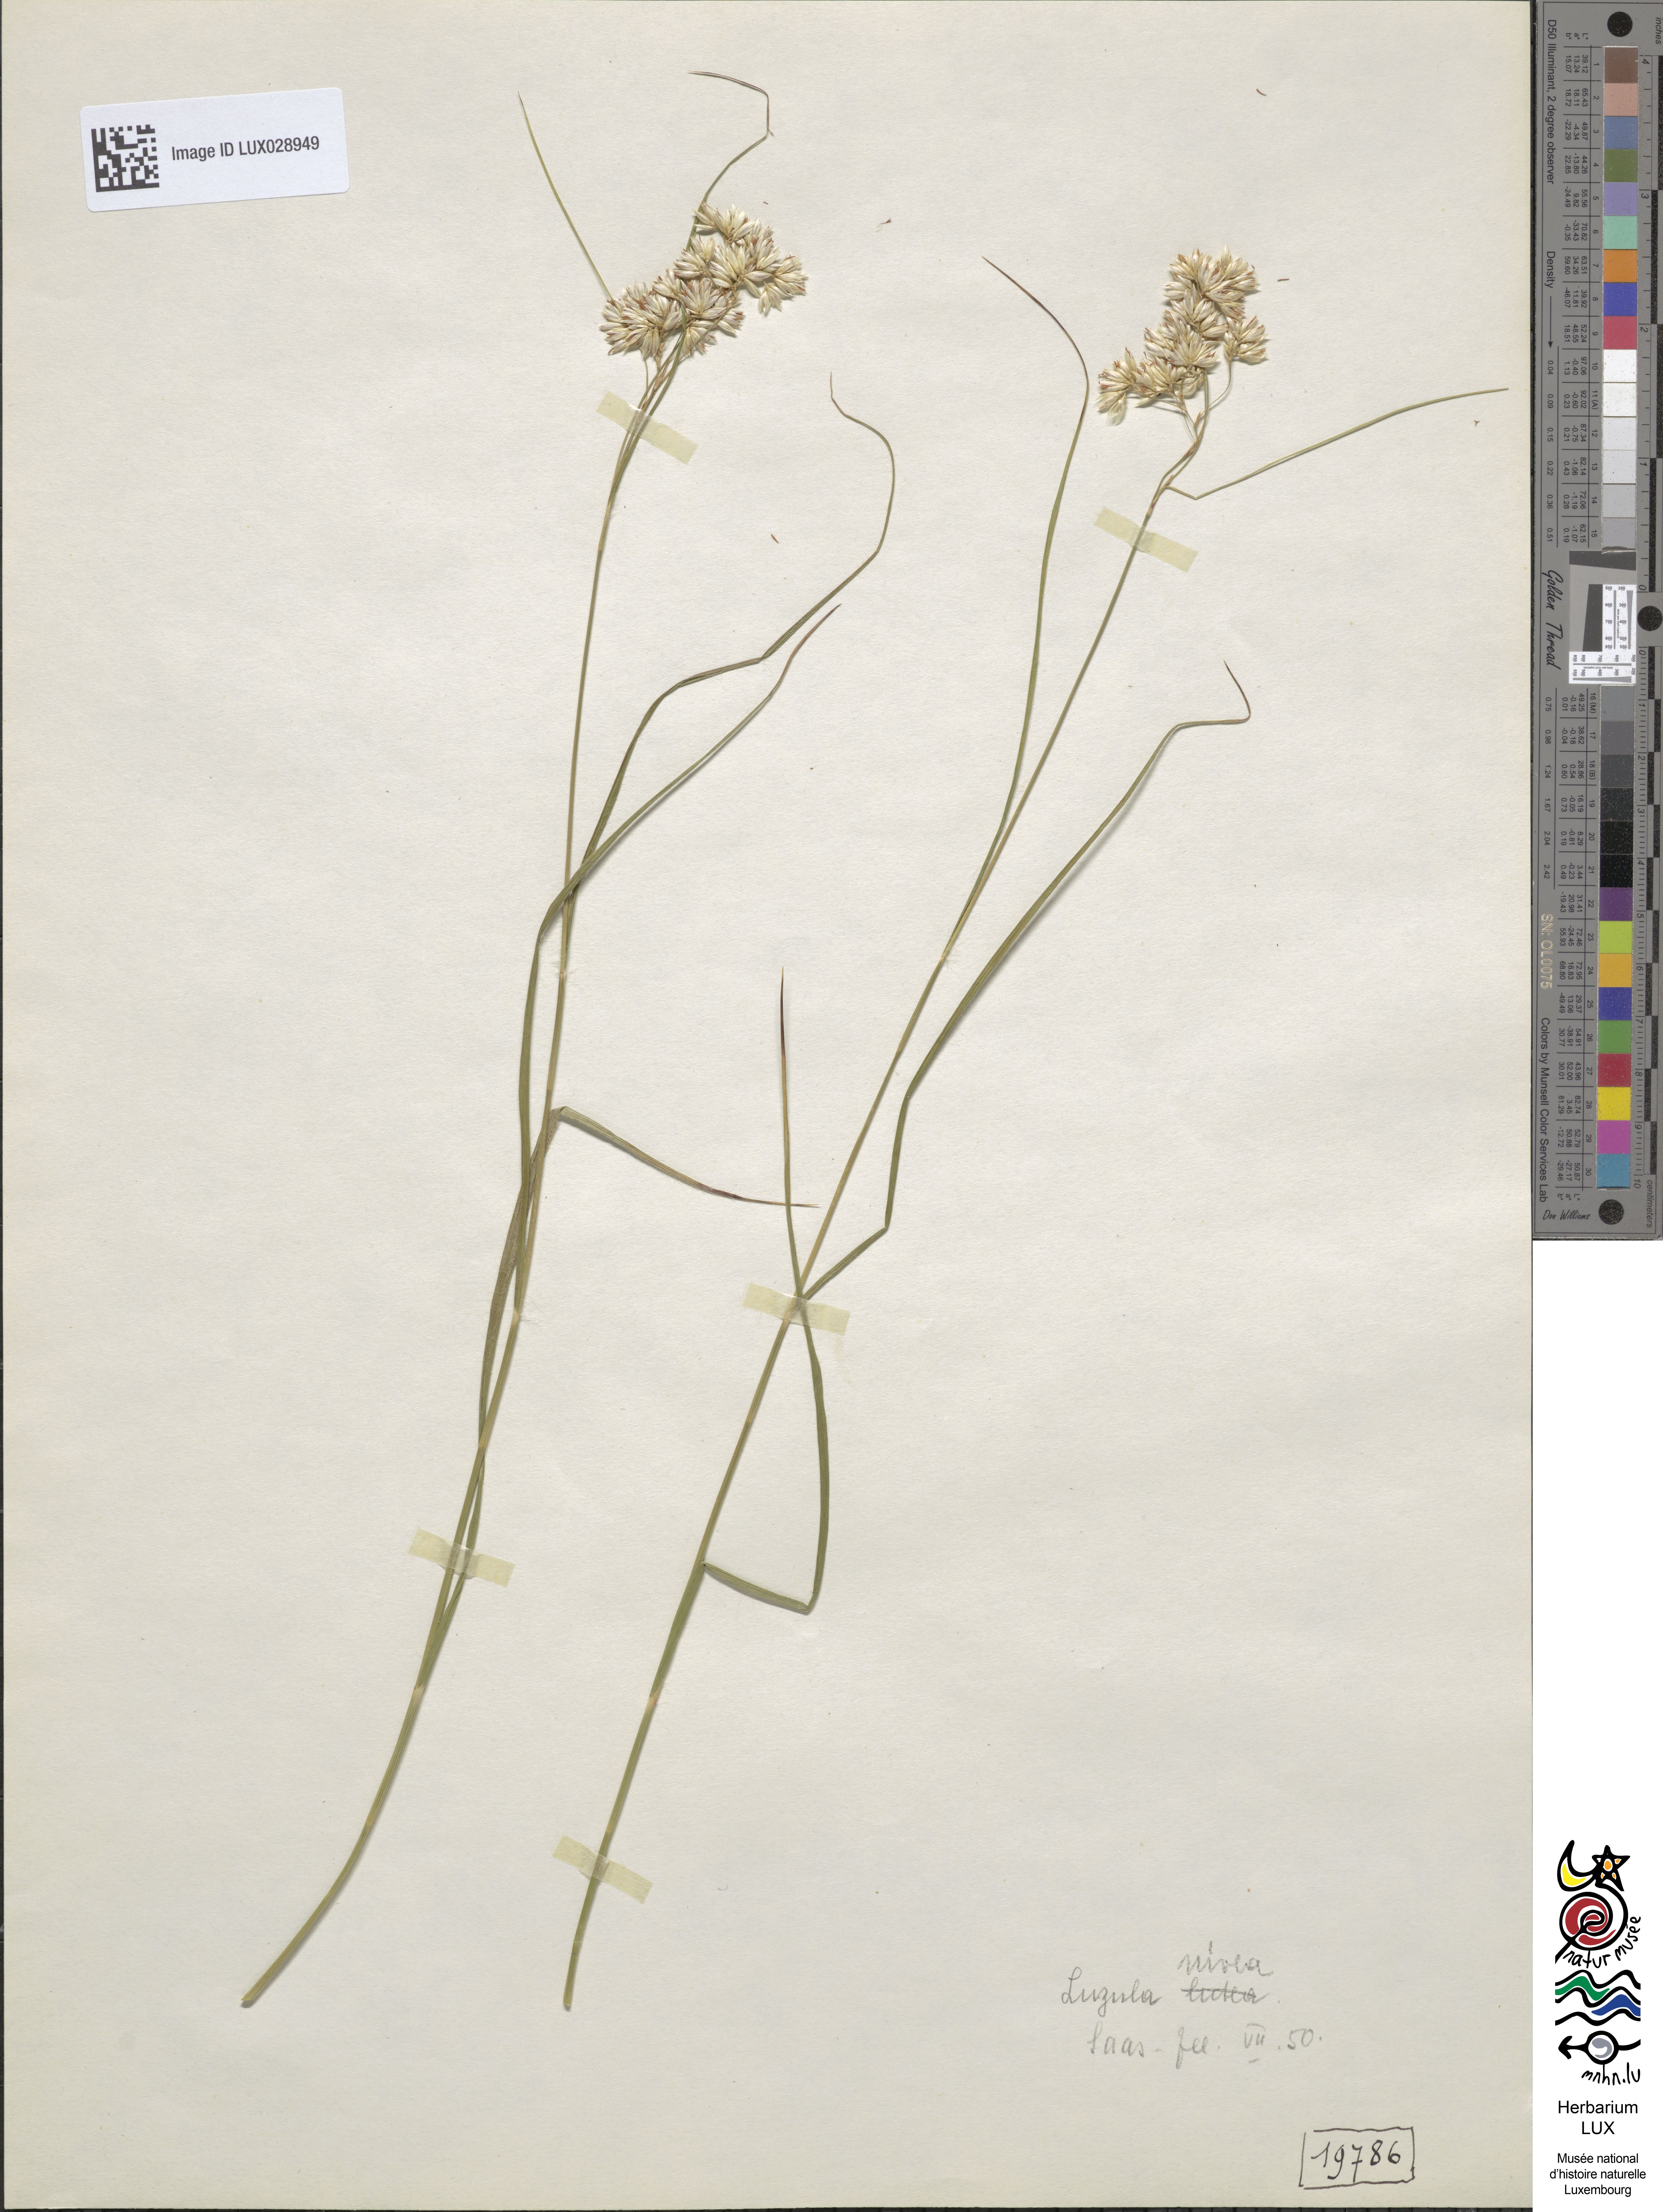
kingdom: Plantae
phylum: Tracheophyta
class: Liliopsida
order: Poales
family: Juncaceae
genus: Luzula
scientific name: Luzula nivea
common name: Snow-white wood-rush
